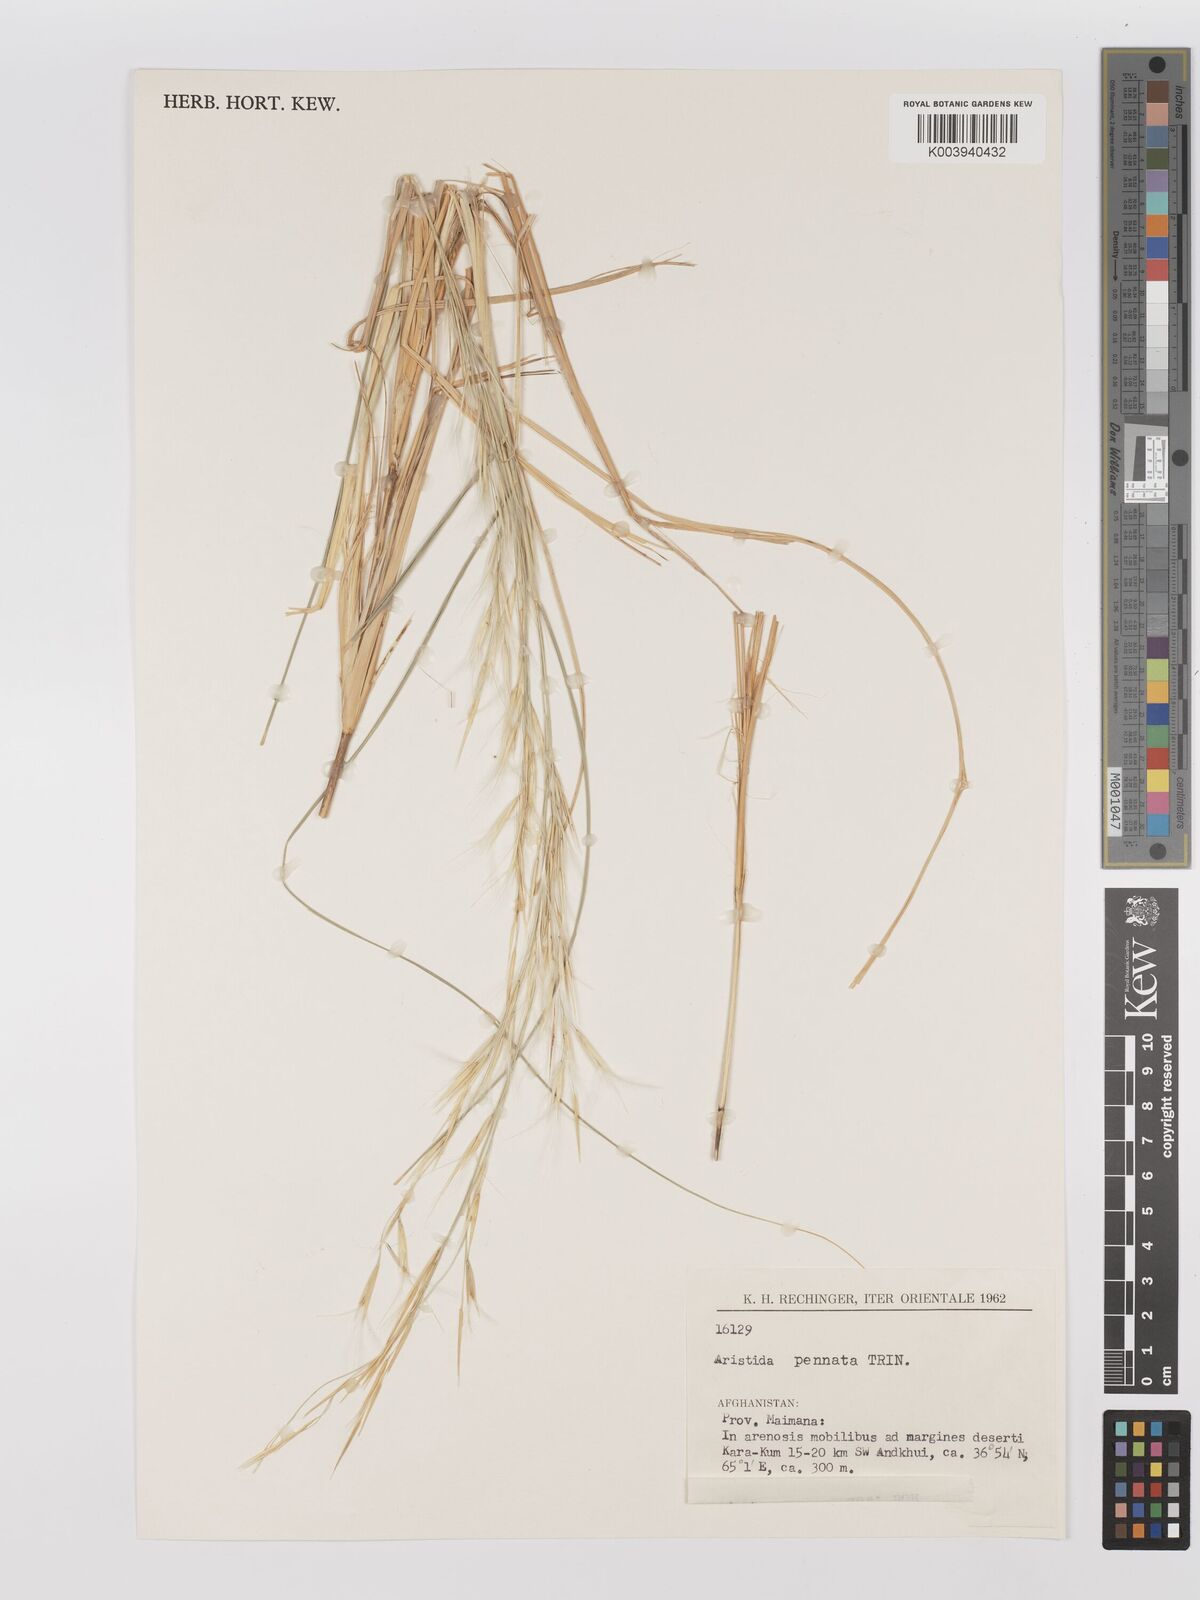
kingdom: Plantae
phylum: Tracheophyta
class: Liliopsida
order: Poales
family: Poaceae
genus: Stipagrostis
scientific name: Stipagrostis pennata
